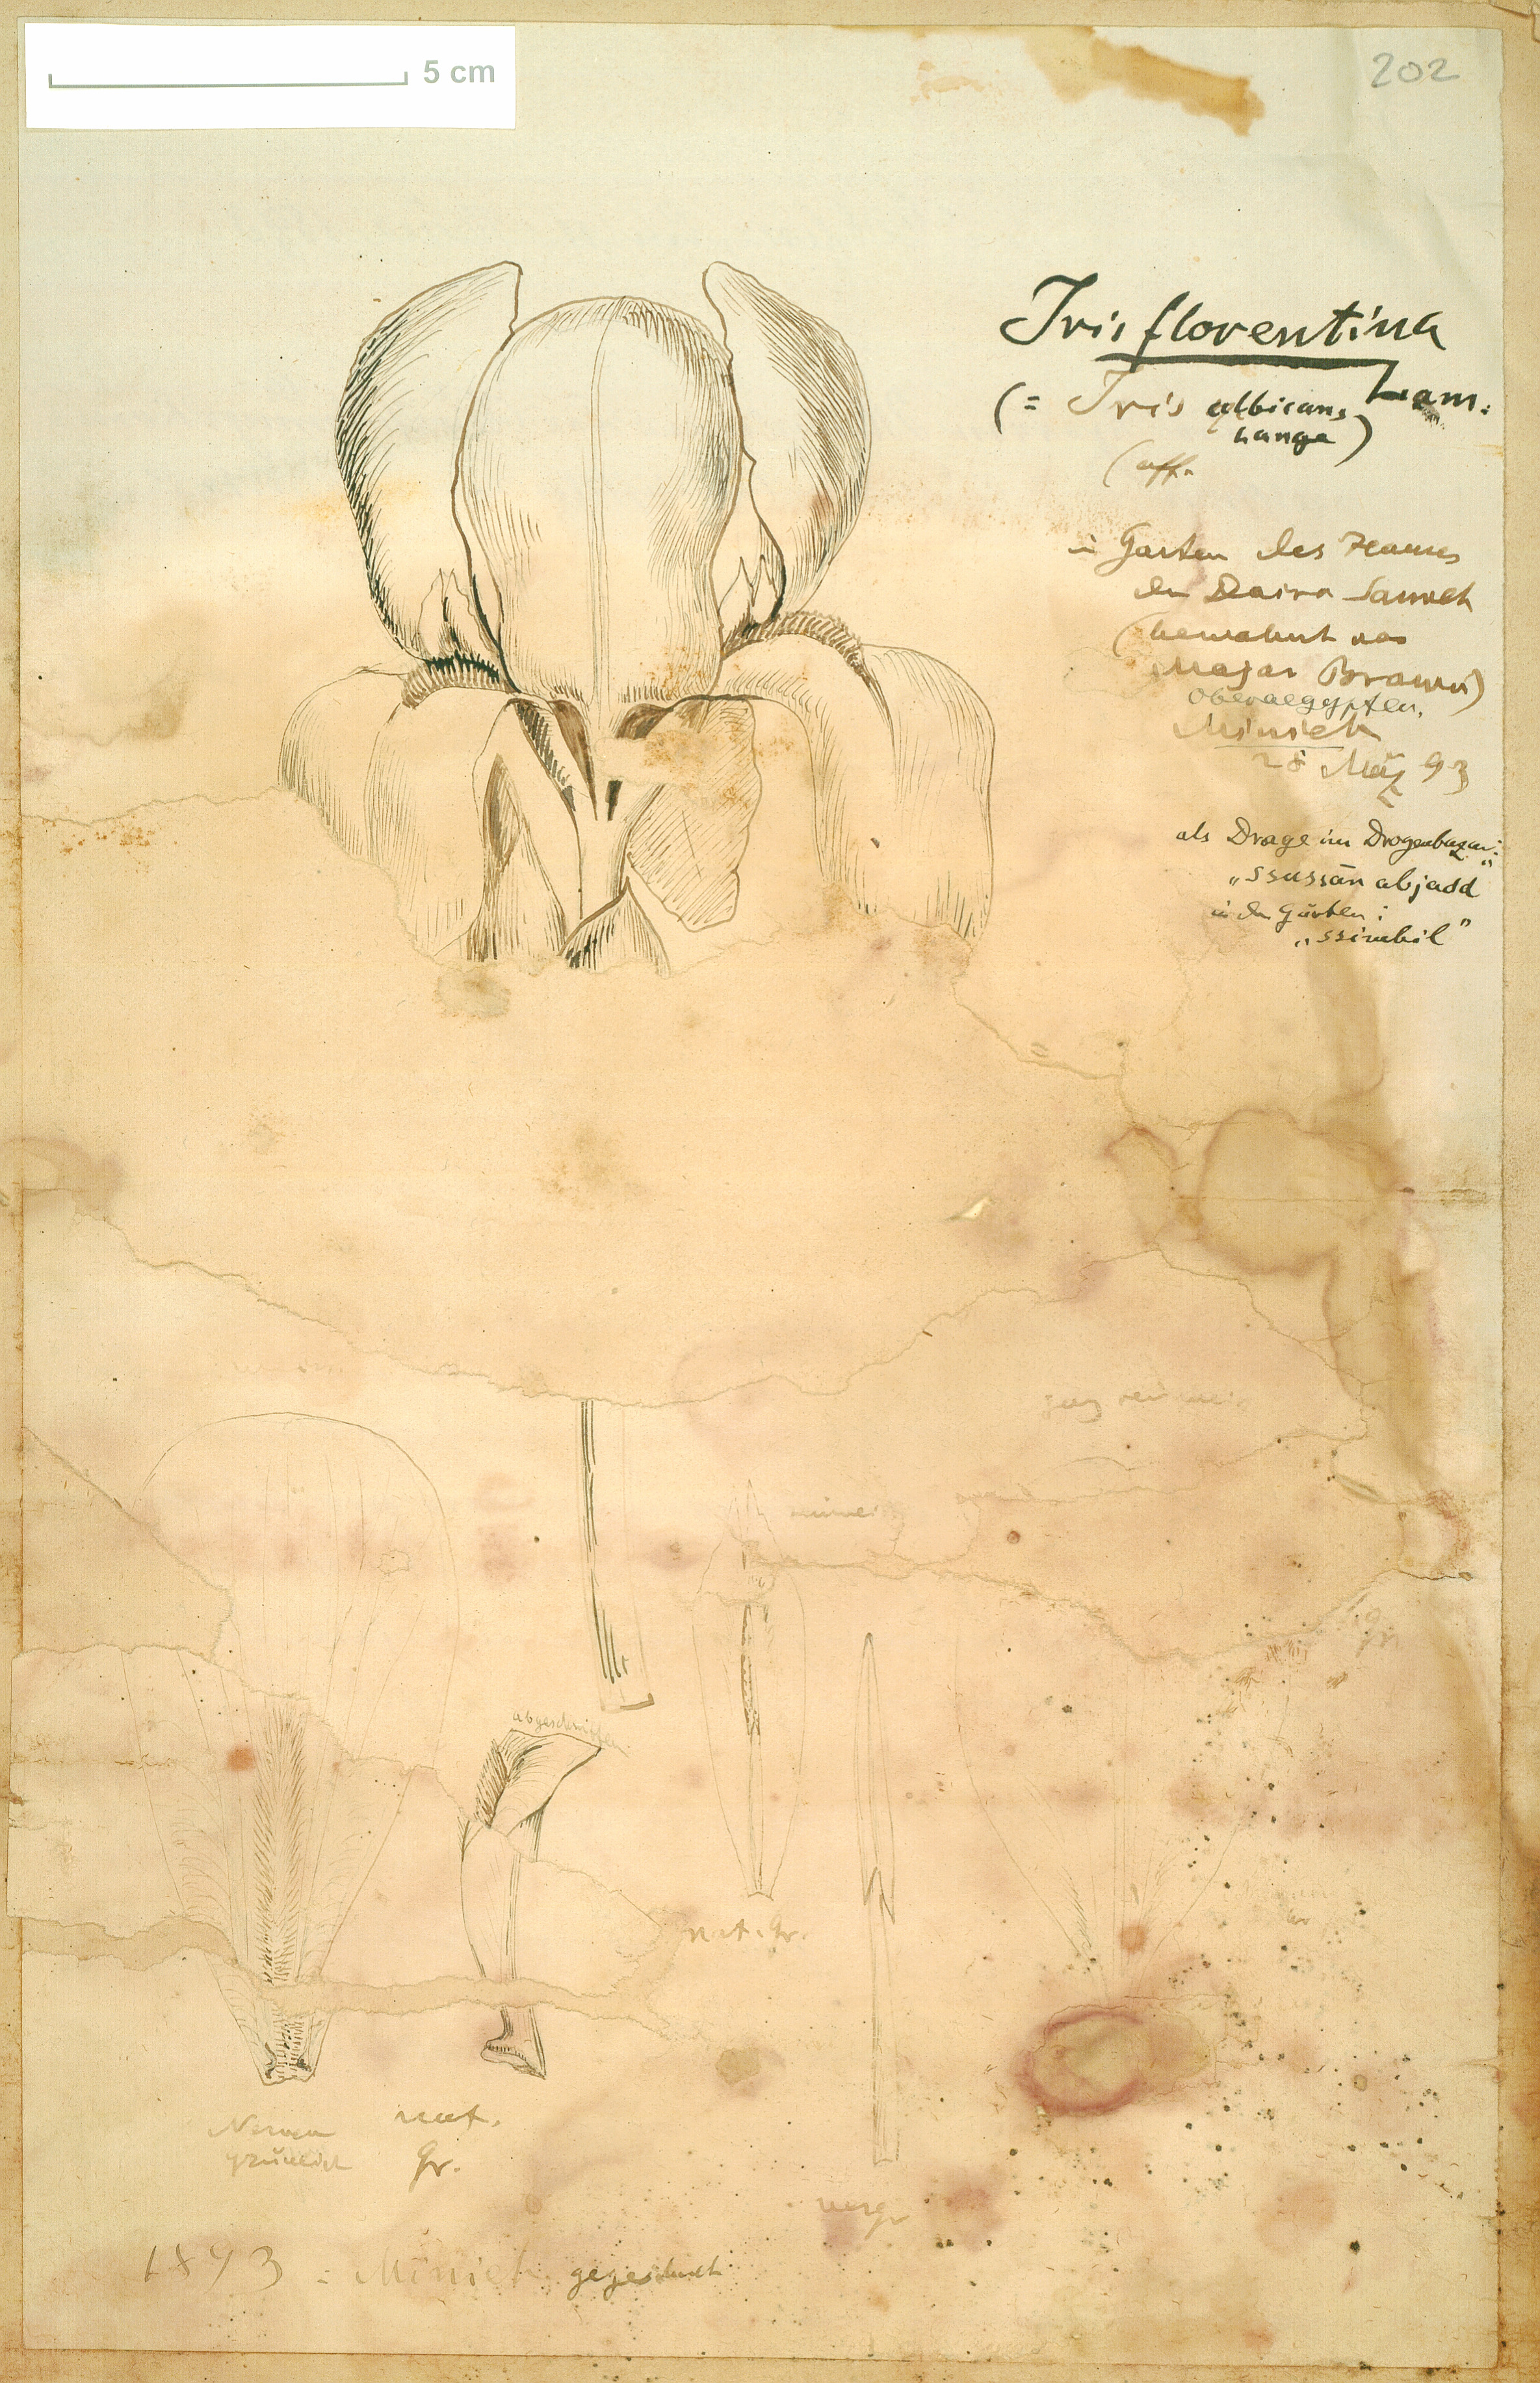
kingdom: Plantae
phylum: Tracheophyta
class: Liliopsida
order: Asparagales
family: Iridaceae
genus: Iris
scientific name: Iris florentina
